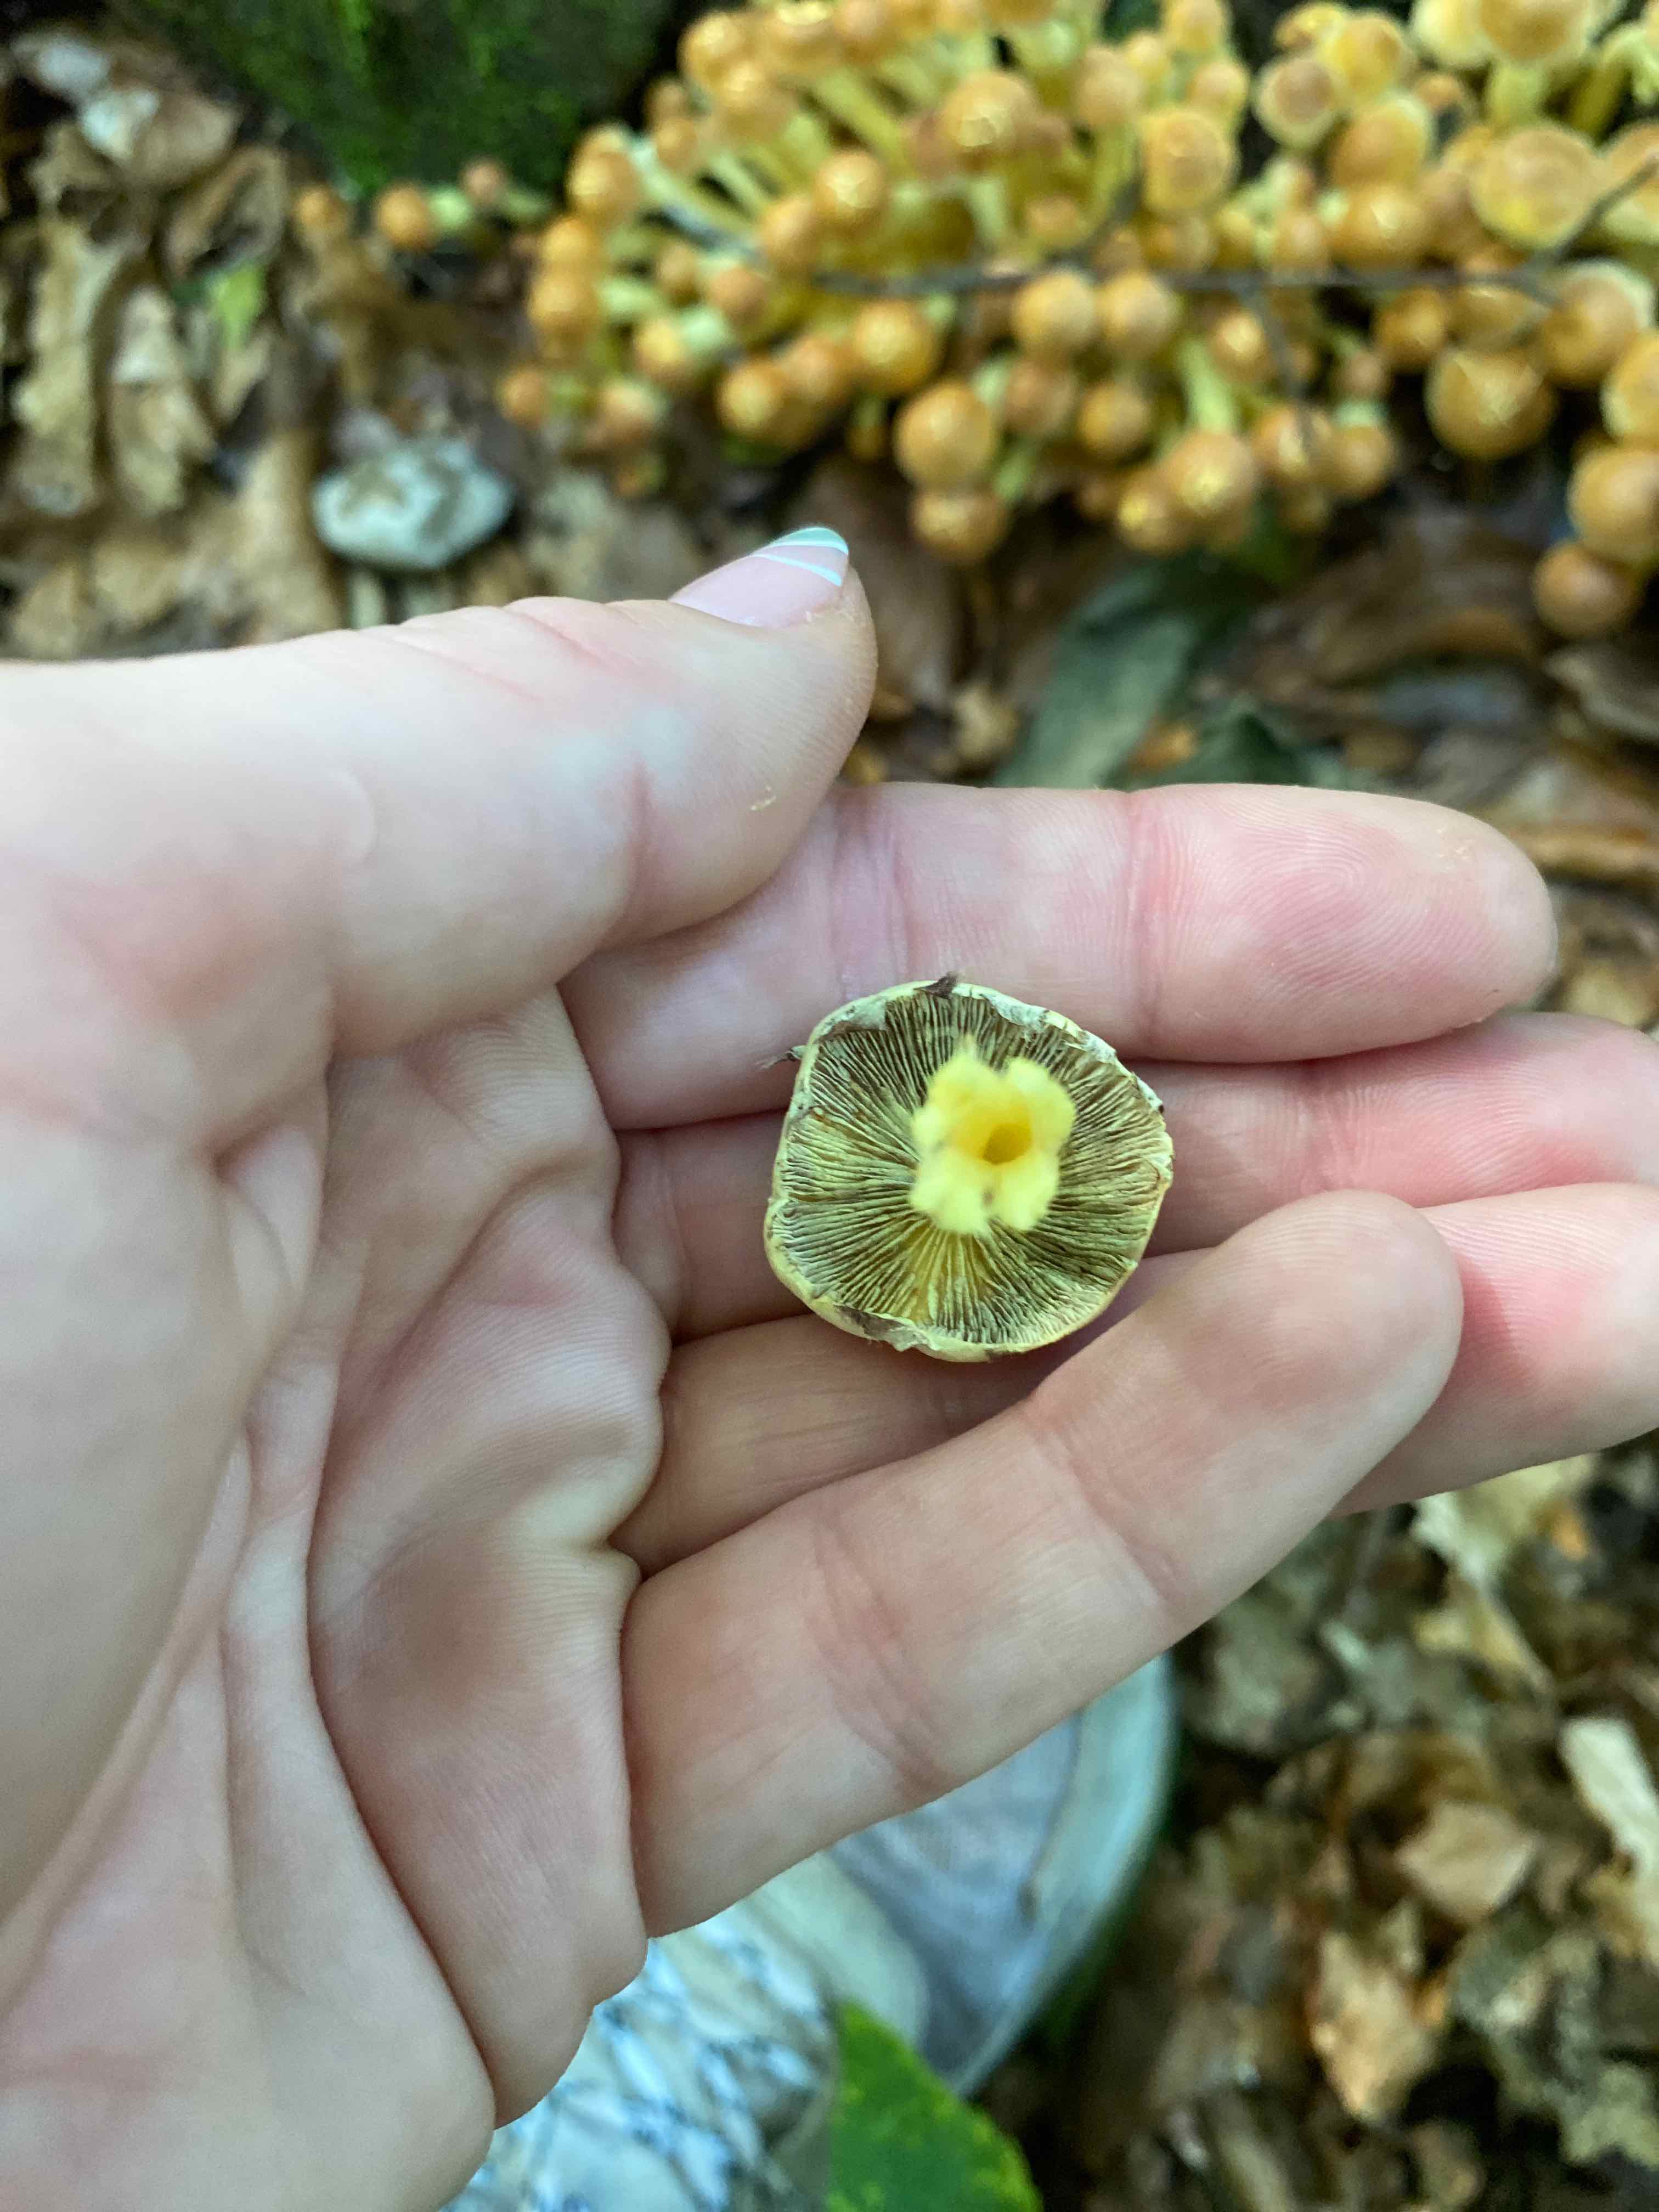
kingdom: Fungi
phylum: Basidiomycota
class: Agaricomycetes
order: Agaricales
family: Strophariaceae
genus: Hypholoma
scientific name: Hypholoma fasciculare
